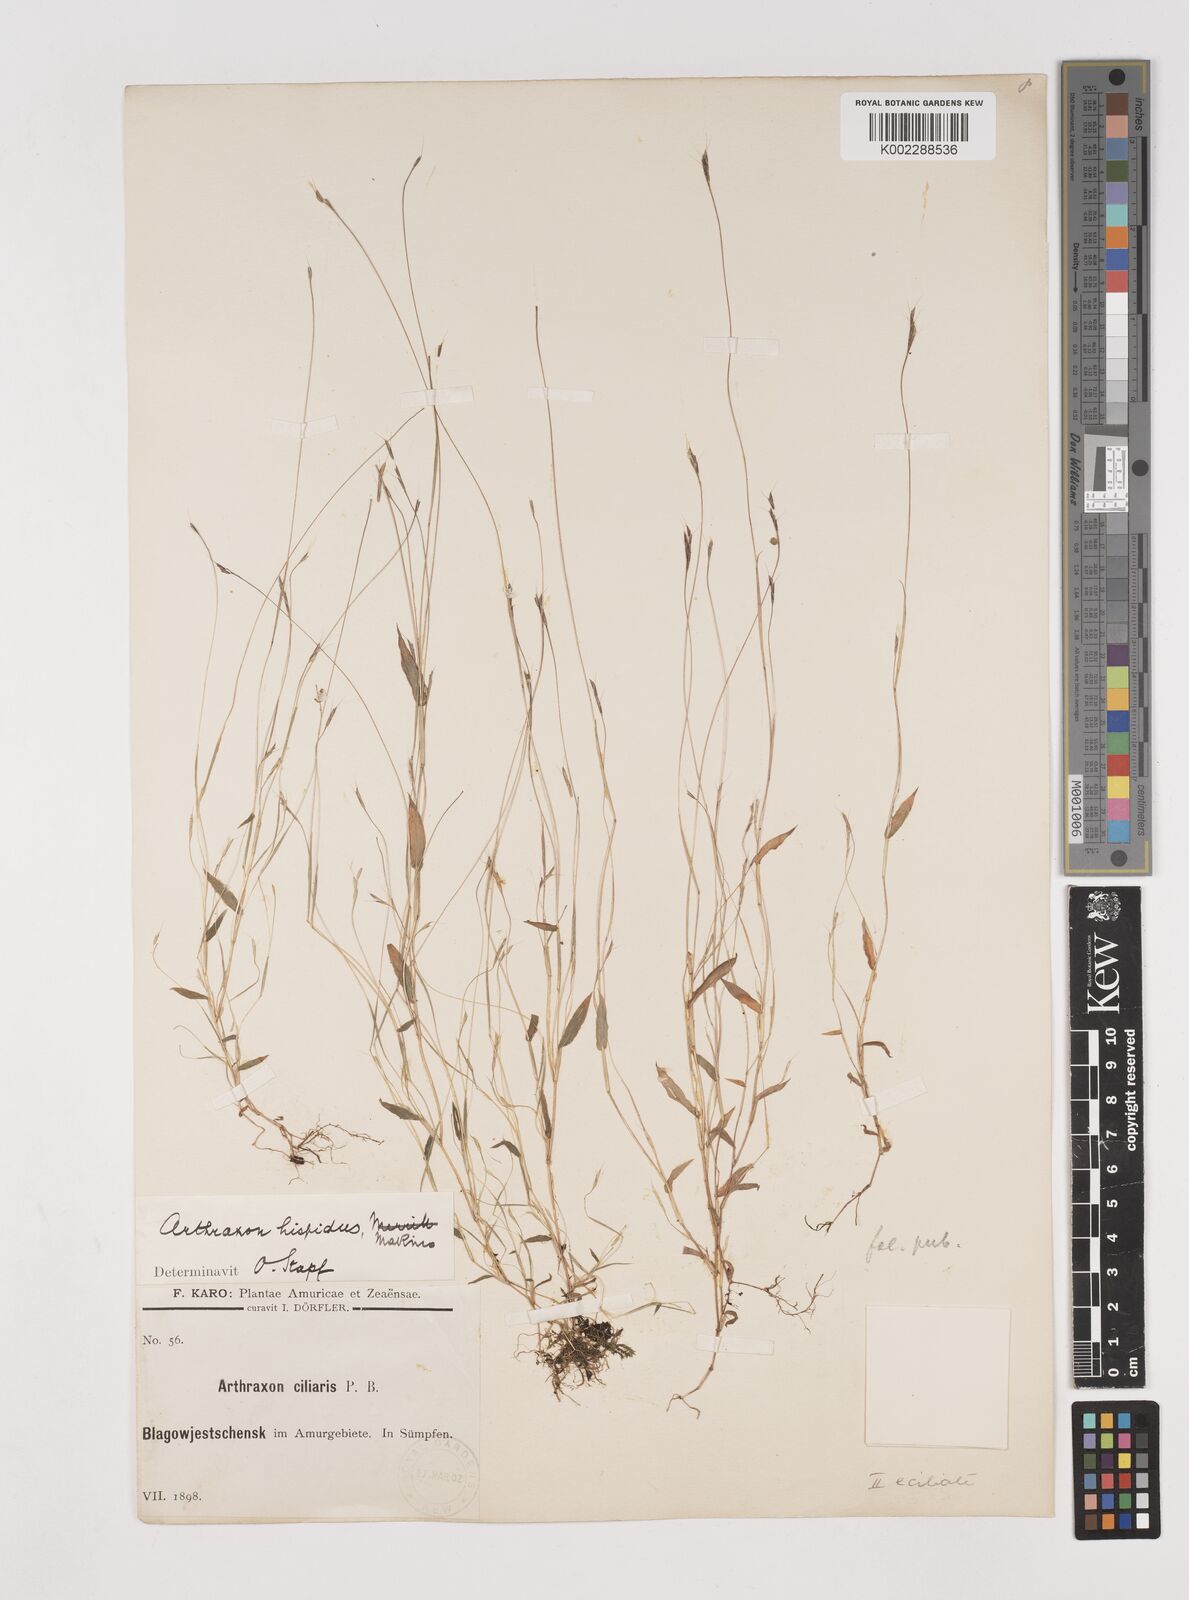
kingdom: Plantae
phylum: Tracheophyta
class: Liliopsida
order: Poales
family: Poaceae
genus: Arthraxon
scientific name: Arthraxon hispidus
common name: Small carpgrass
